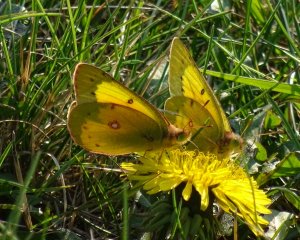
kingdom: Animalia
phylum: Arthropoda
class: Insecta
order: Lepidoptera
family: Pieridae
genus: Colias
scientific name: Colias eurytheme
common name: Orange Sulphur
